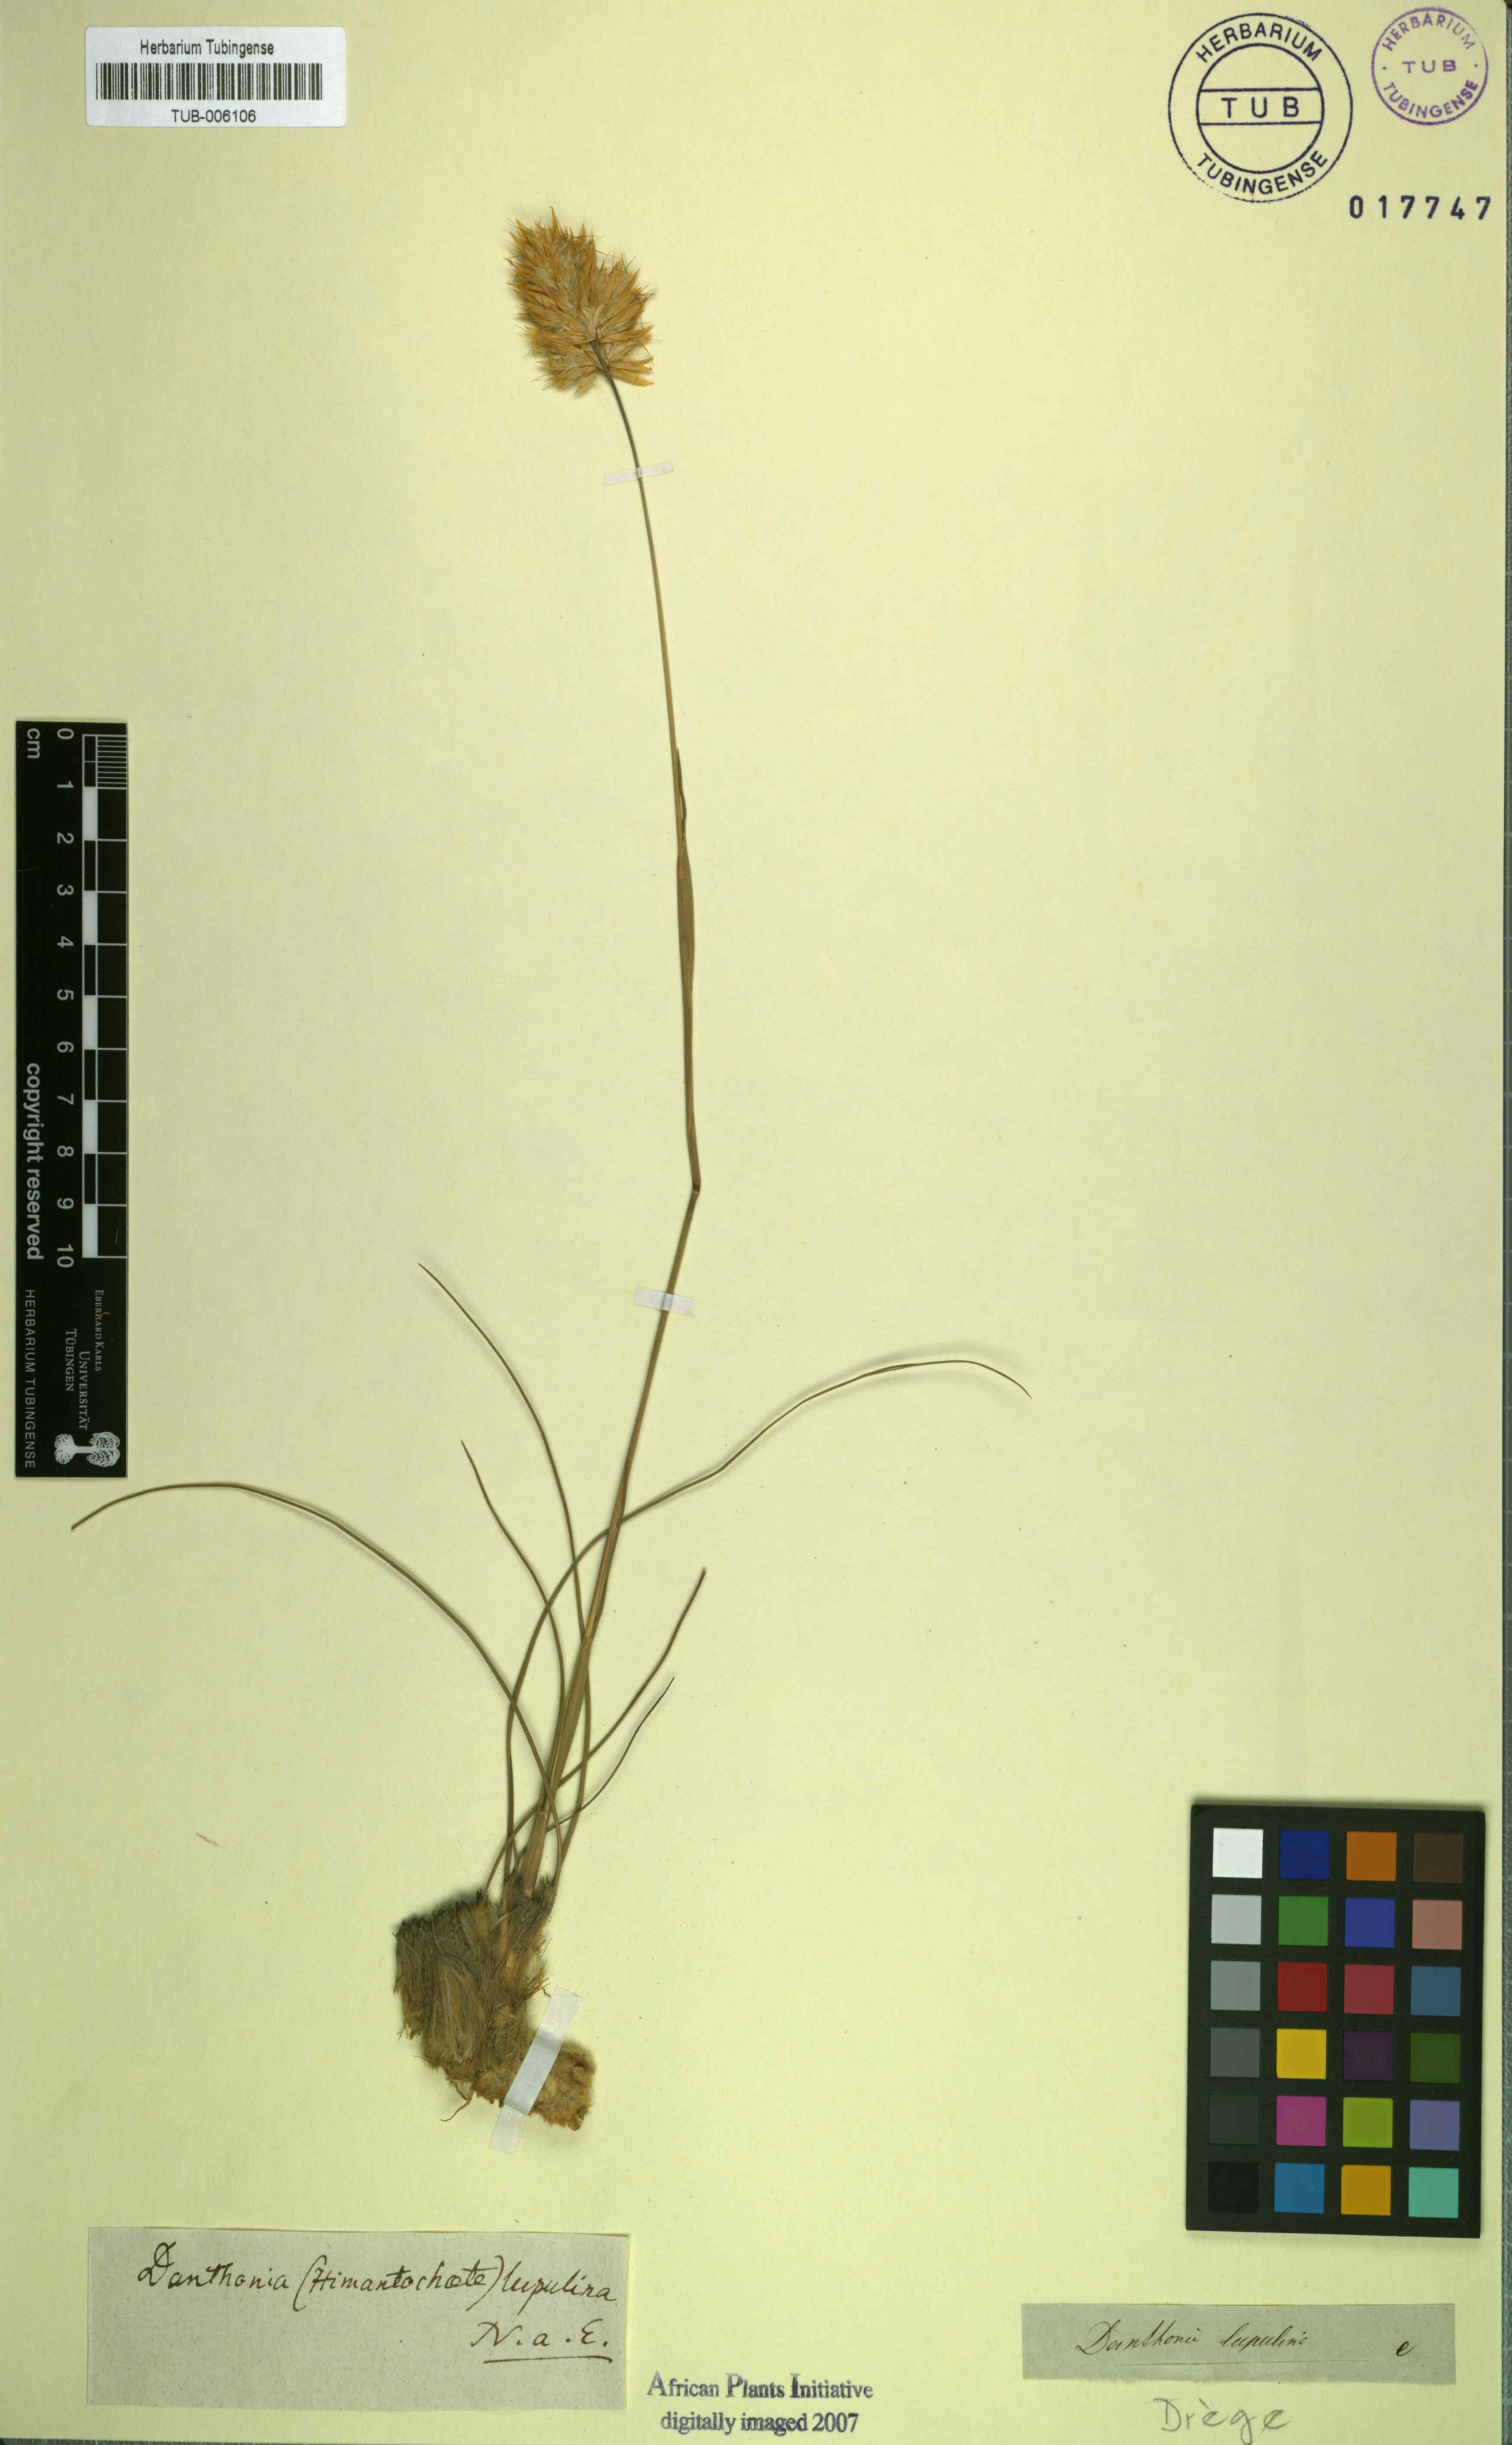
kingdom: Plantae
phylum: Tracheophyta
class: Liliopsida
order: Poales
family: Poaceae
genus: Geochloa
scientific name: Geochloa lupulina
